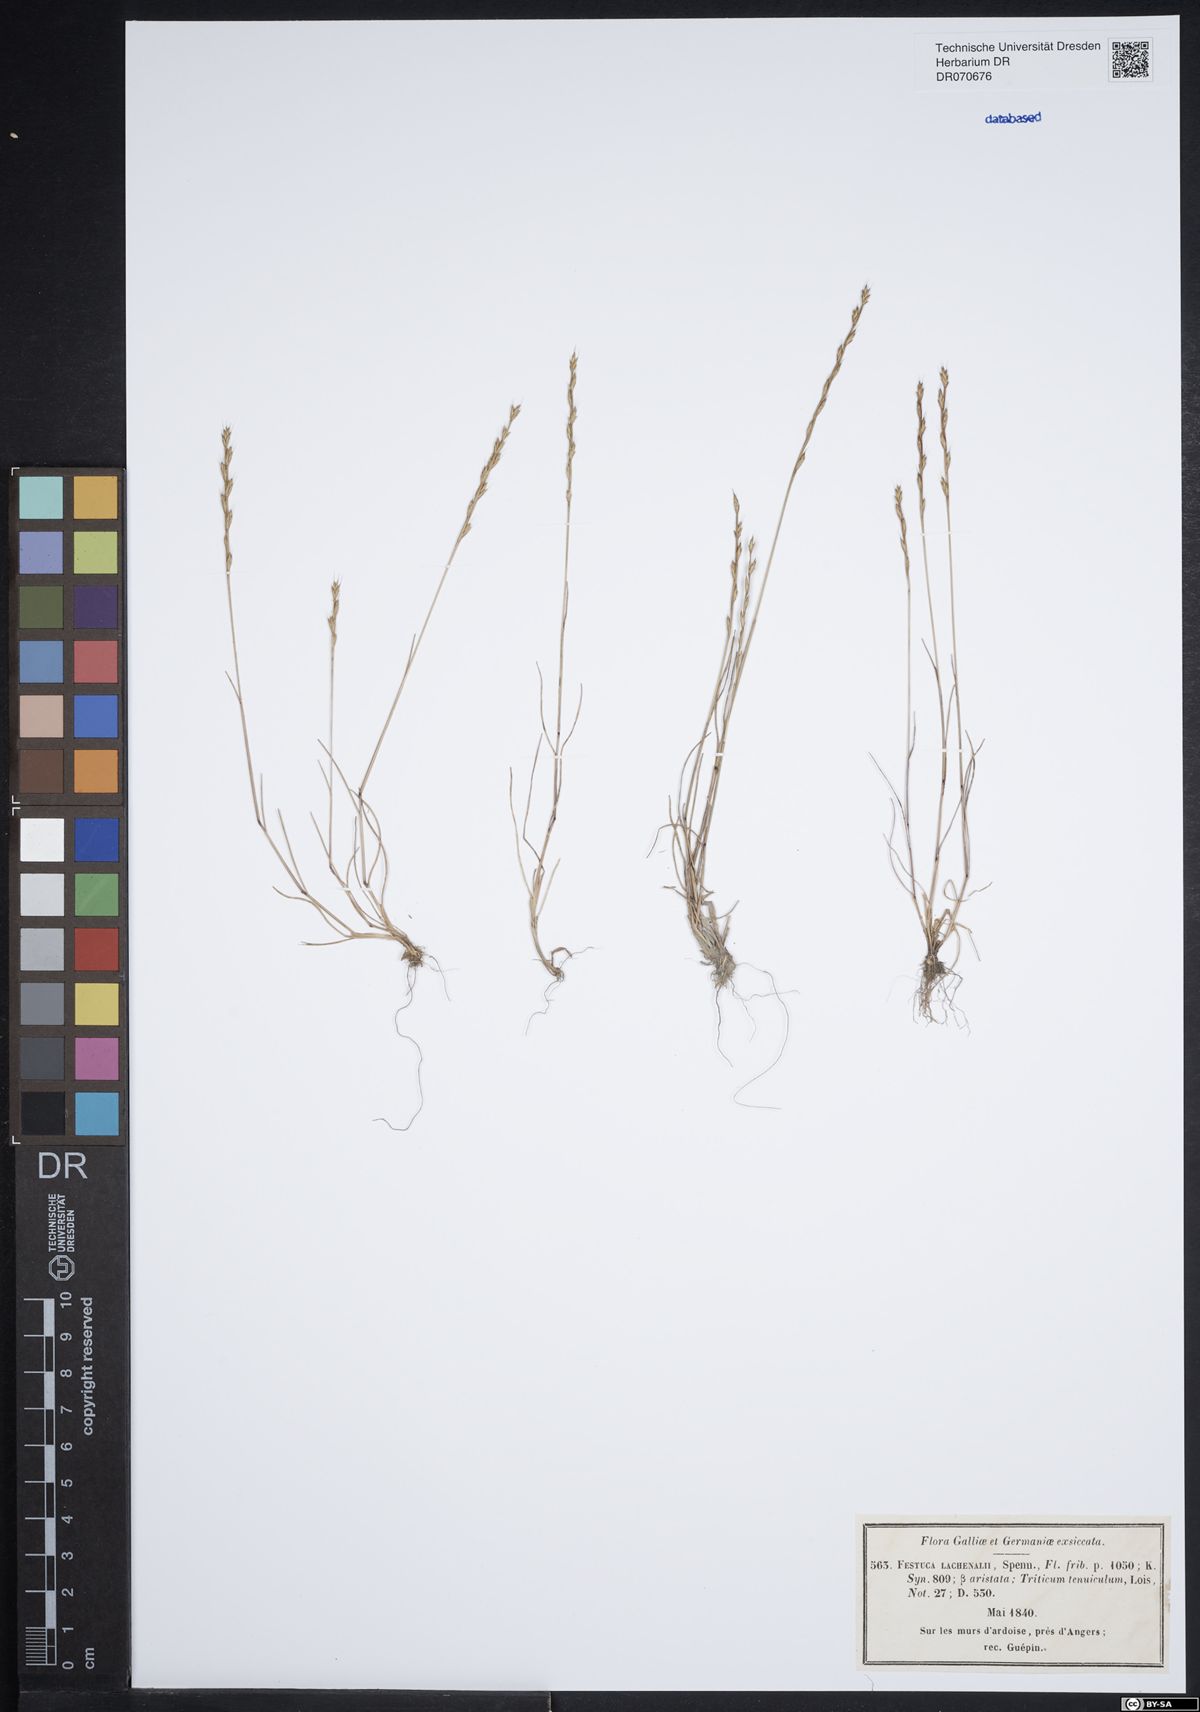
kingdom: Plantae
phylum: Tracheophyta
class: Liliopsida
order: Poales
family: Poaceae
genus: Festuca
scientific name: Festuca lachenalii
